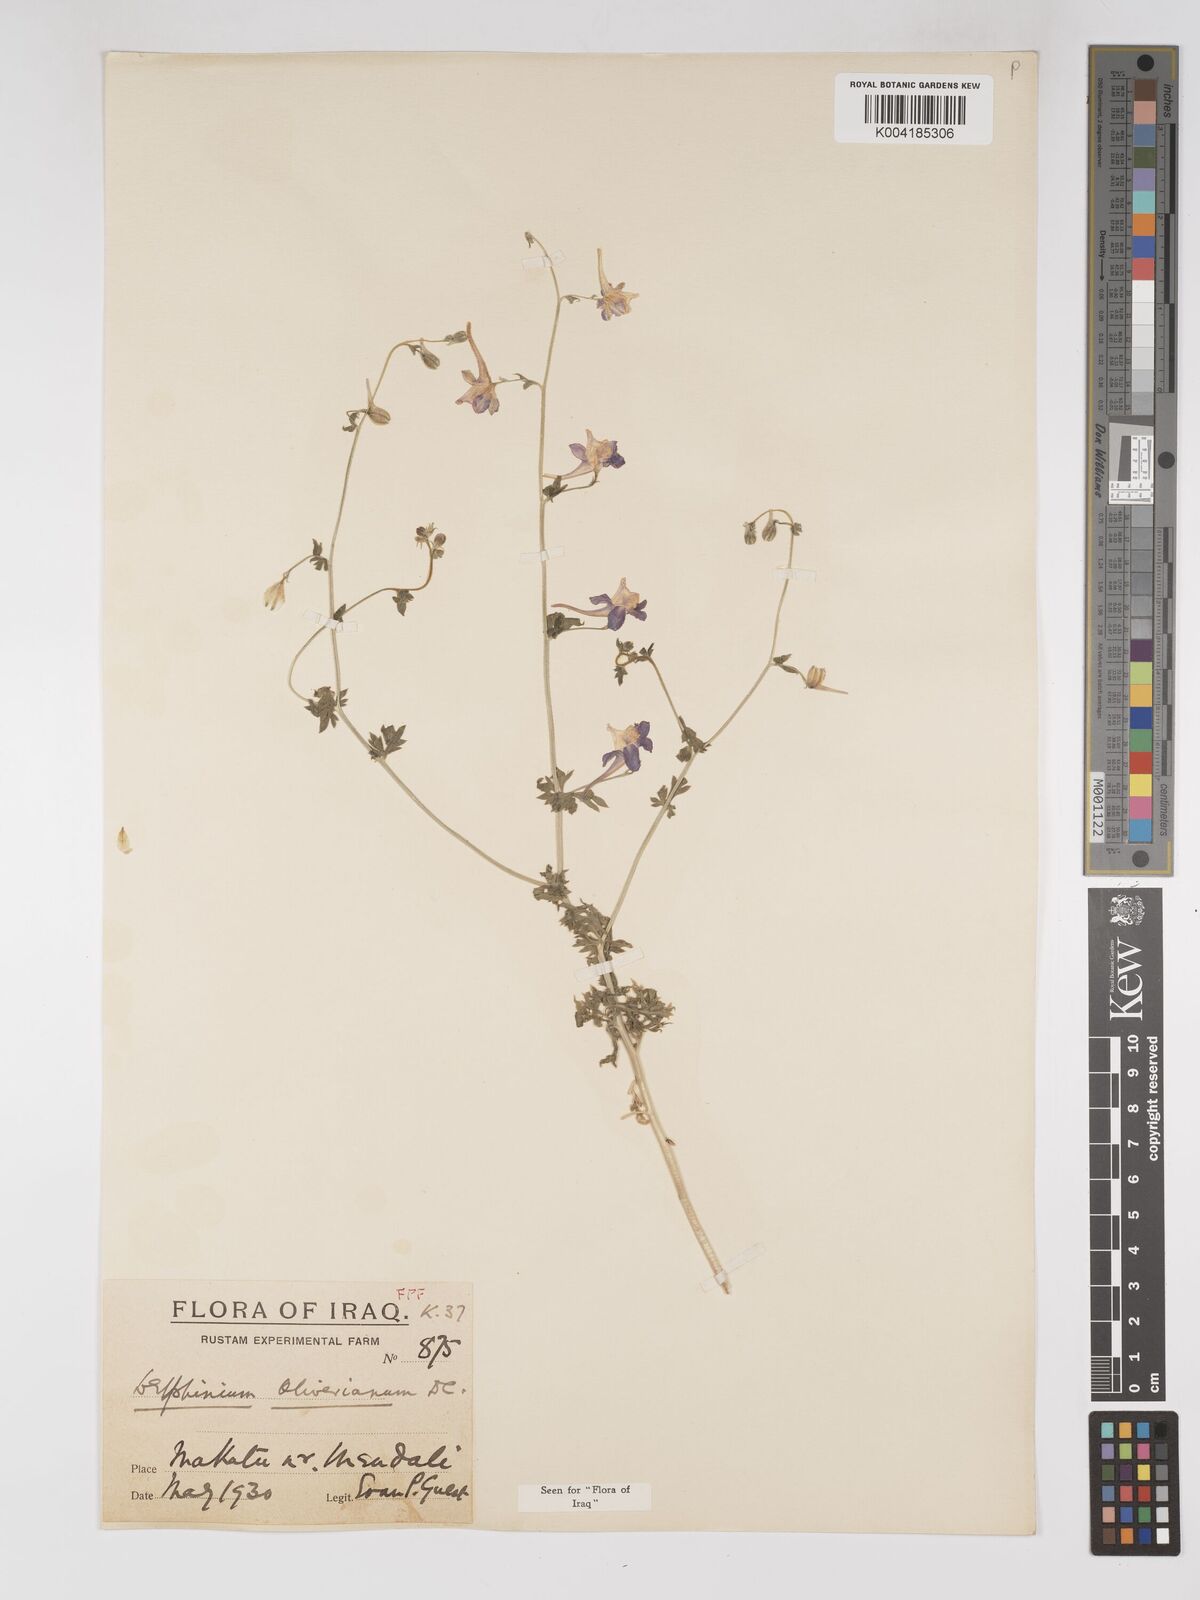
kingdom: Plantae
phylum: Tracheophyta
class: Magnoliopsida
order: Ranunculales
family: Ranunculaceae
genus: Delphinium
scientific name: Delphinium oliverianum
